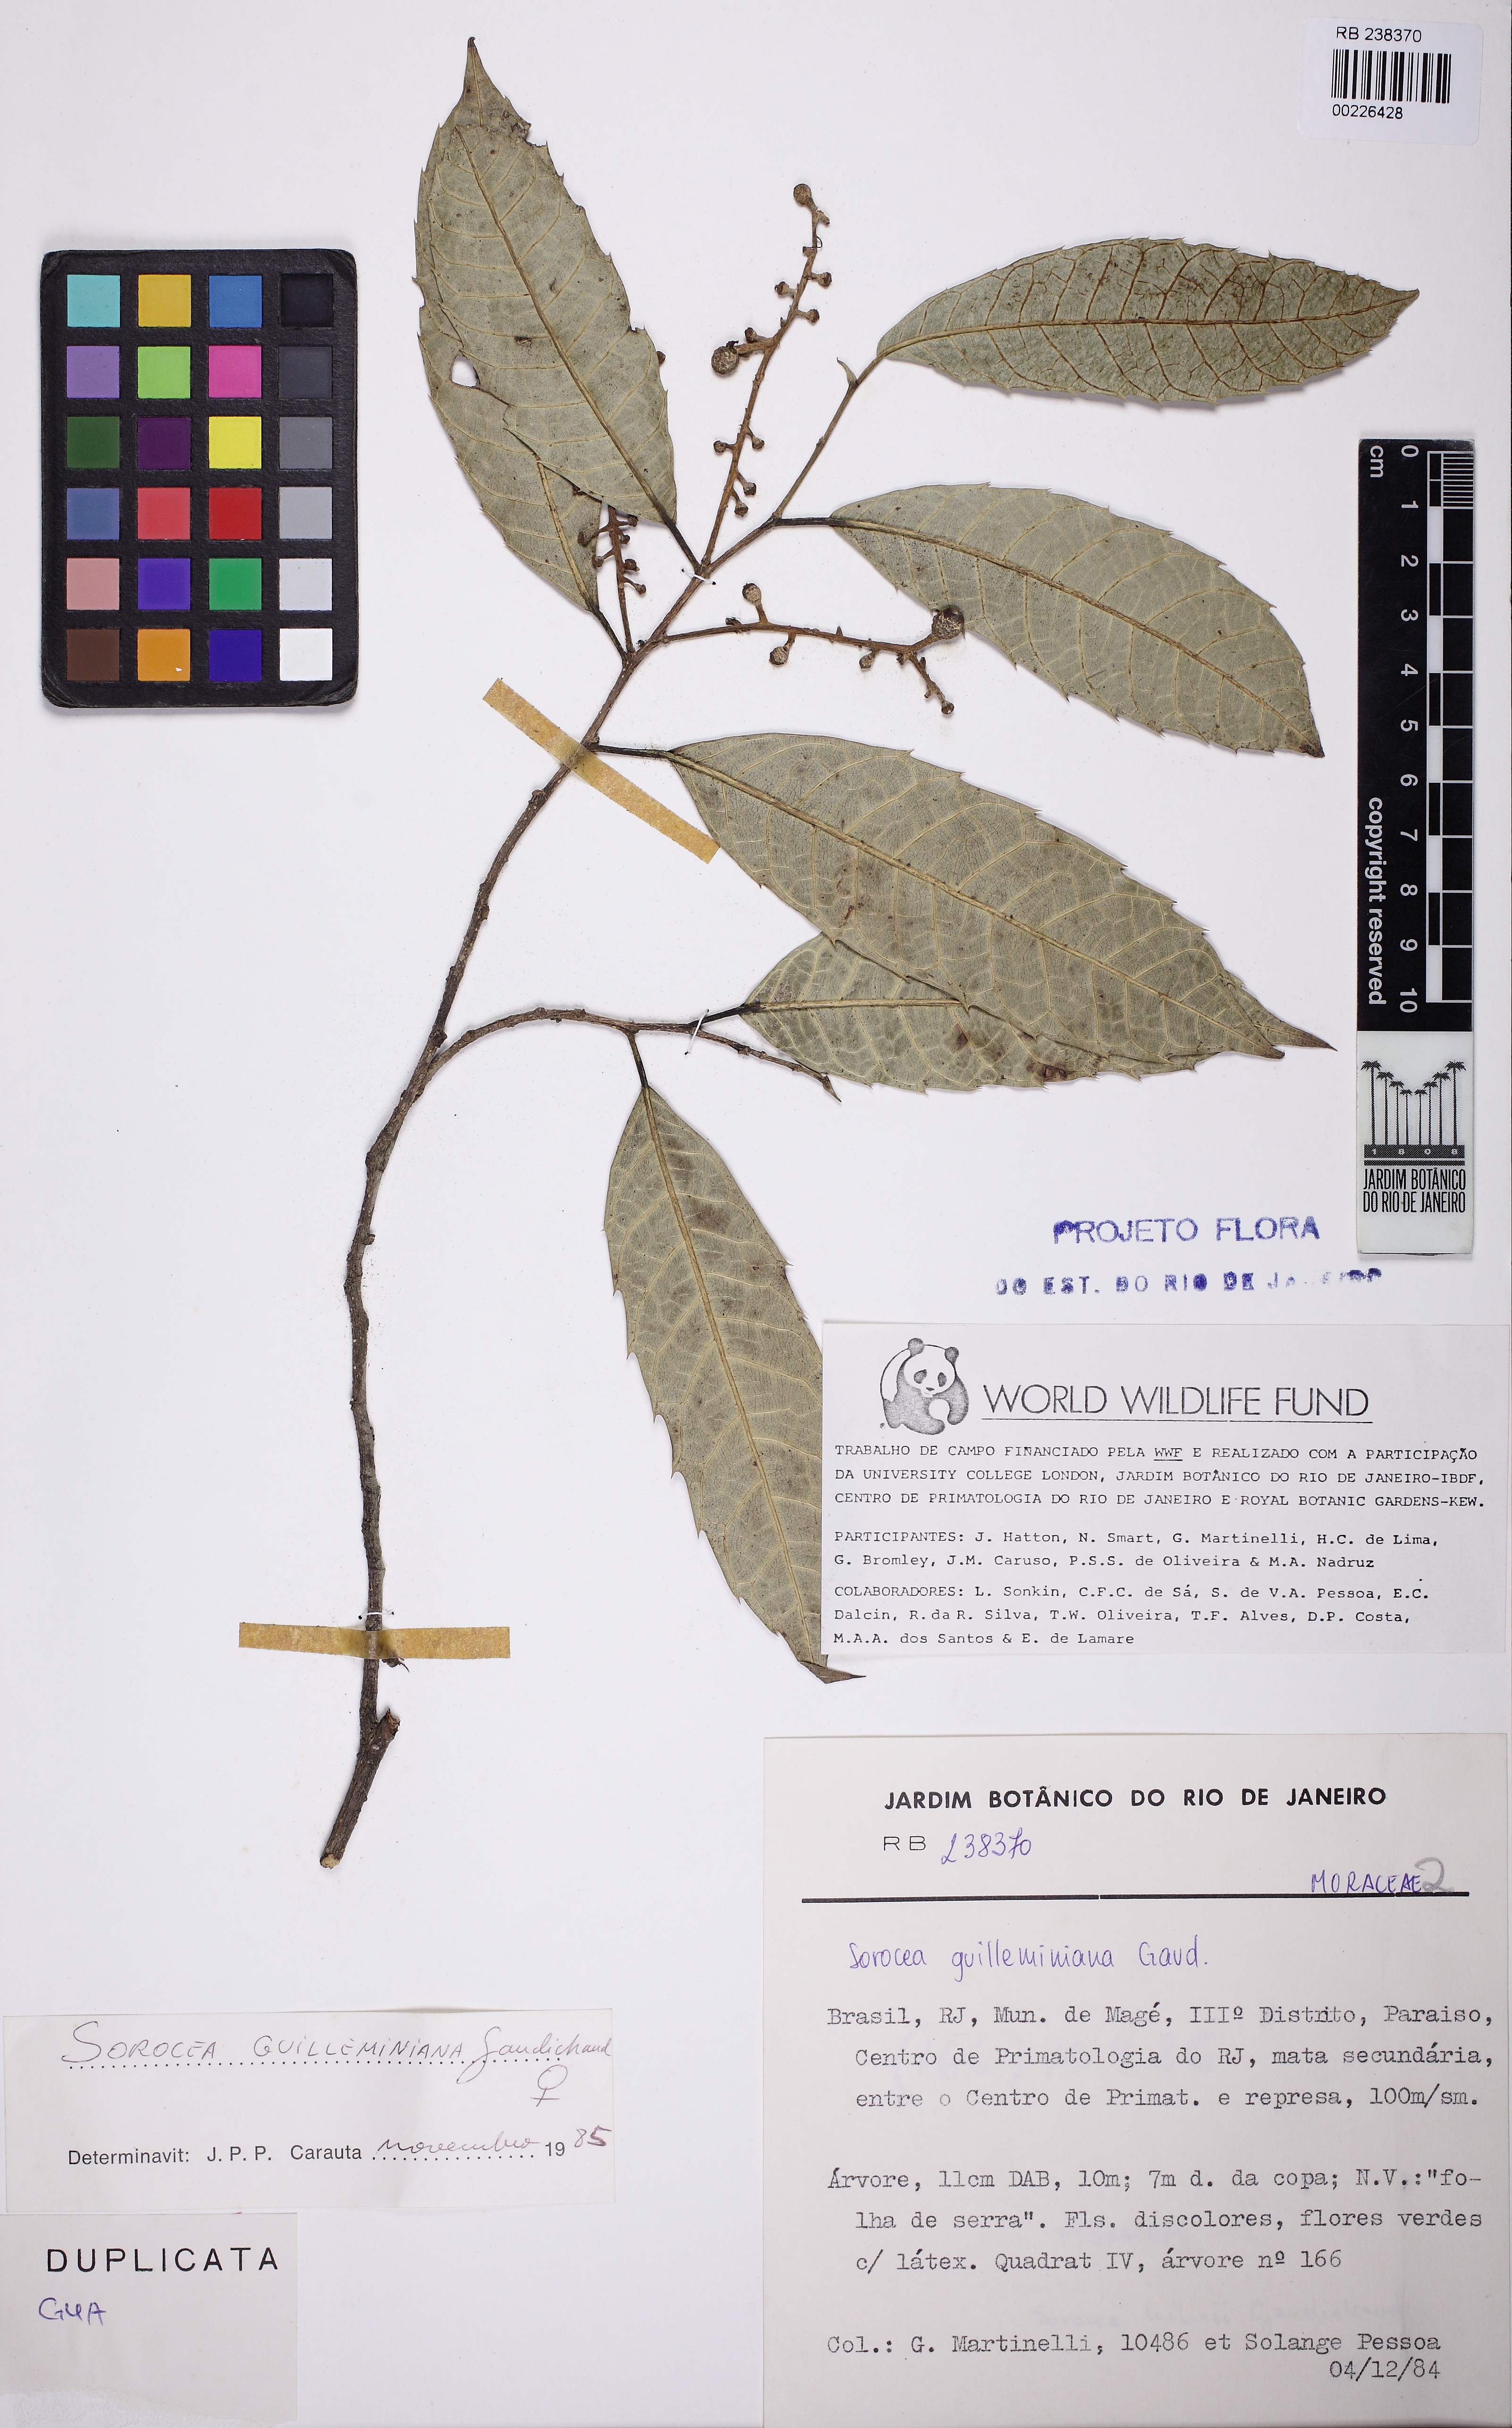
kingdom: Plantae
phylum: Tracheophyta
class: Magnoliopsida
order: Rosales
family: Moraceae
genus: Sorocea
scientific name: Sorocea guilleminiana
